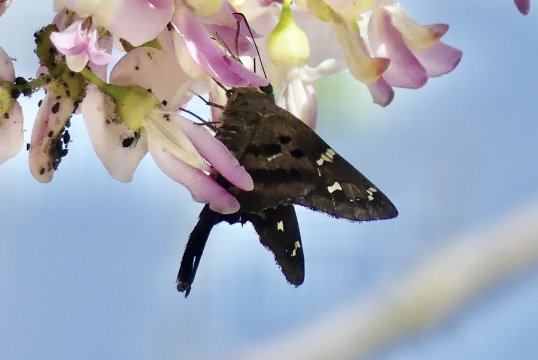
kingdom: Animalia
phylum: Arthropoda
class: Insecta
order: Lepidoptera
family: Hesperiidae
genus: Urbanus
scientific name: Urbanus dorantes
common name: Dorantes Longtail
